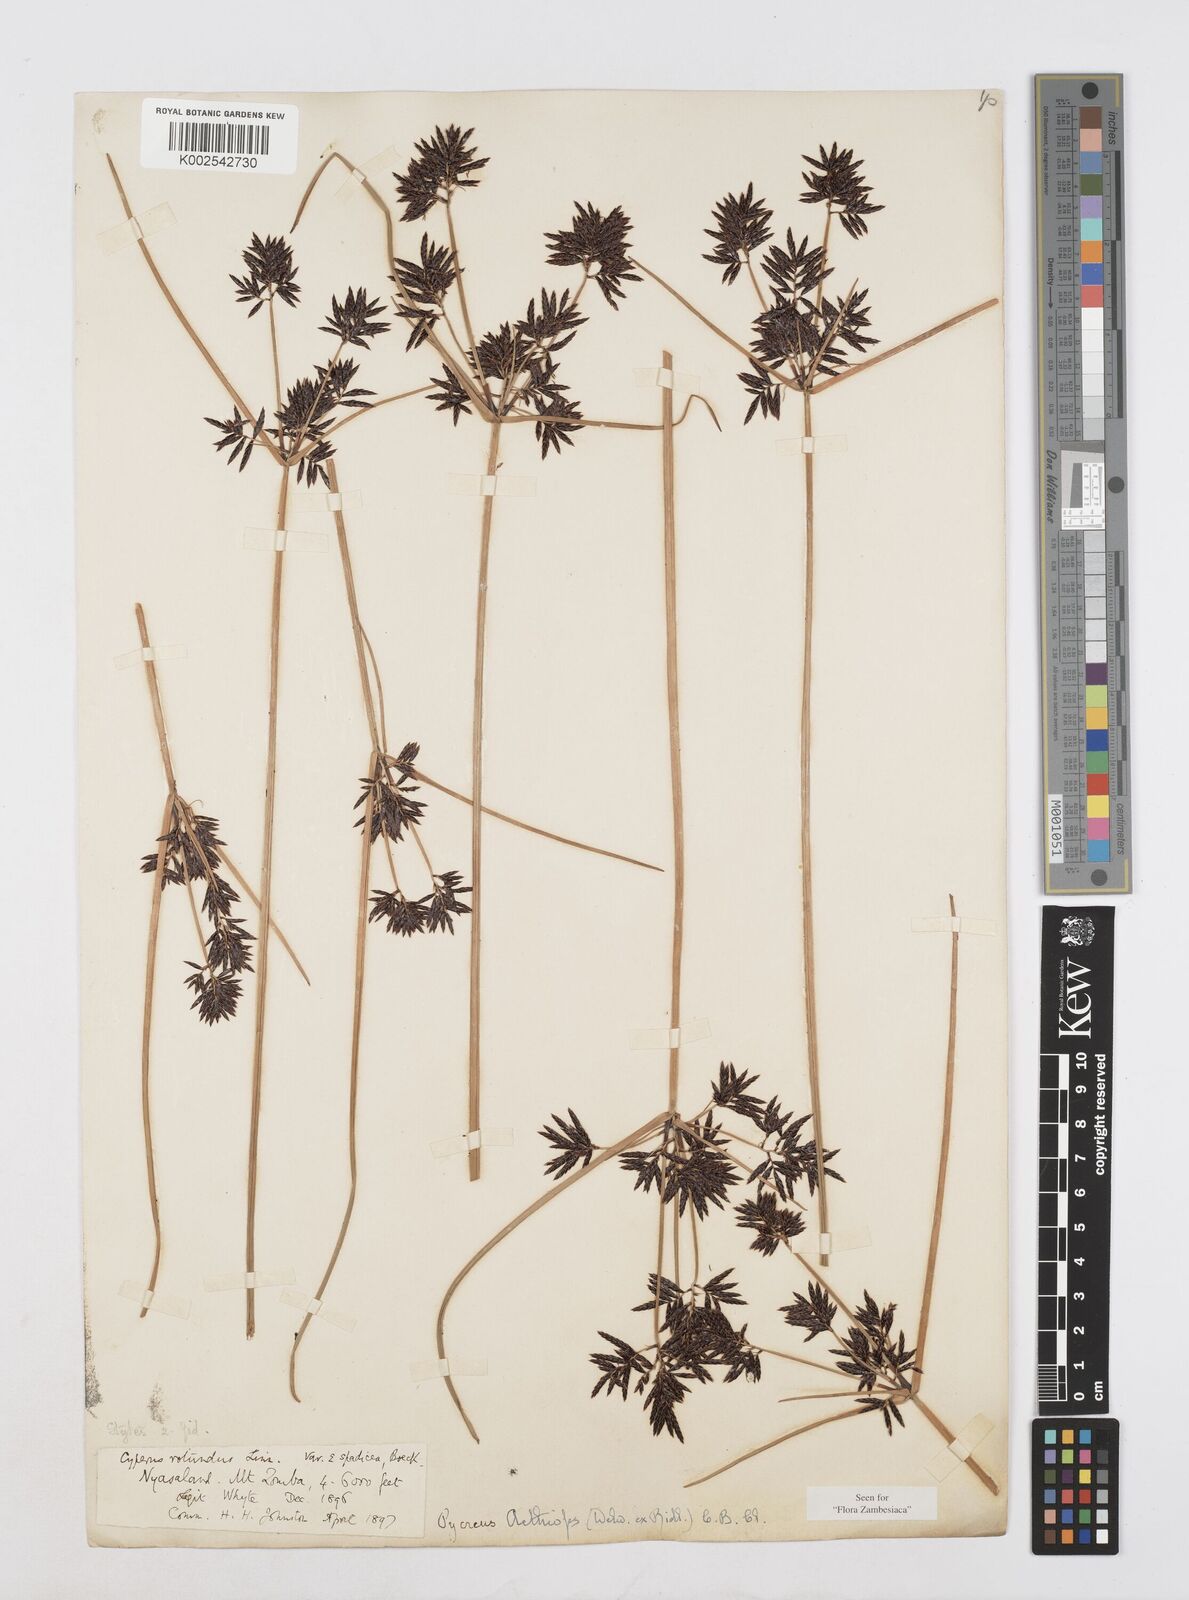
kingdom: Plantae
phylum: Tracheophyta
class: Liliopsida
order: Poales
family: Cyperaceae
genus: Cyperus
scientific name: Cyperus aethiops
